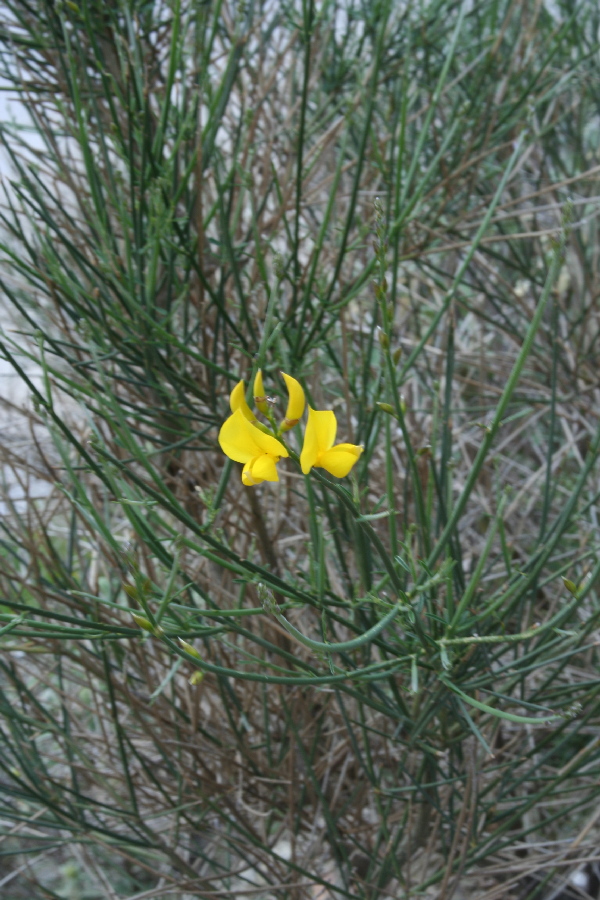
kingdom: Plantae
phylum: Tracheophyta
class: Magnoliopsida
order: Fabales
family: Fabaceae
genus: Spartium
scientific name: Spartium junceum
